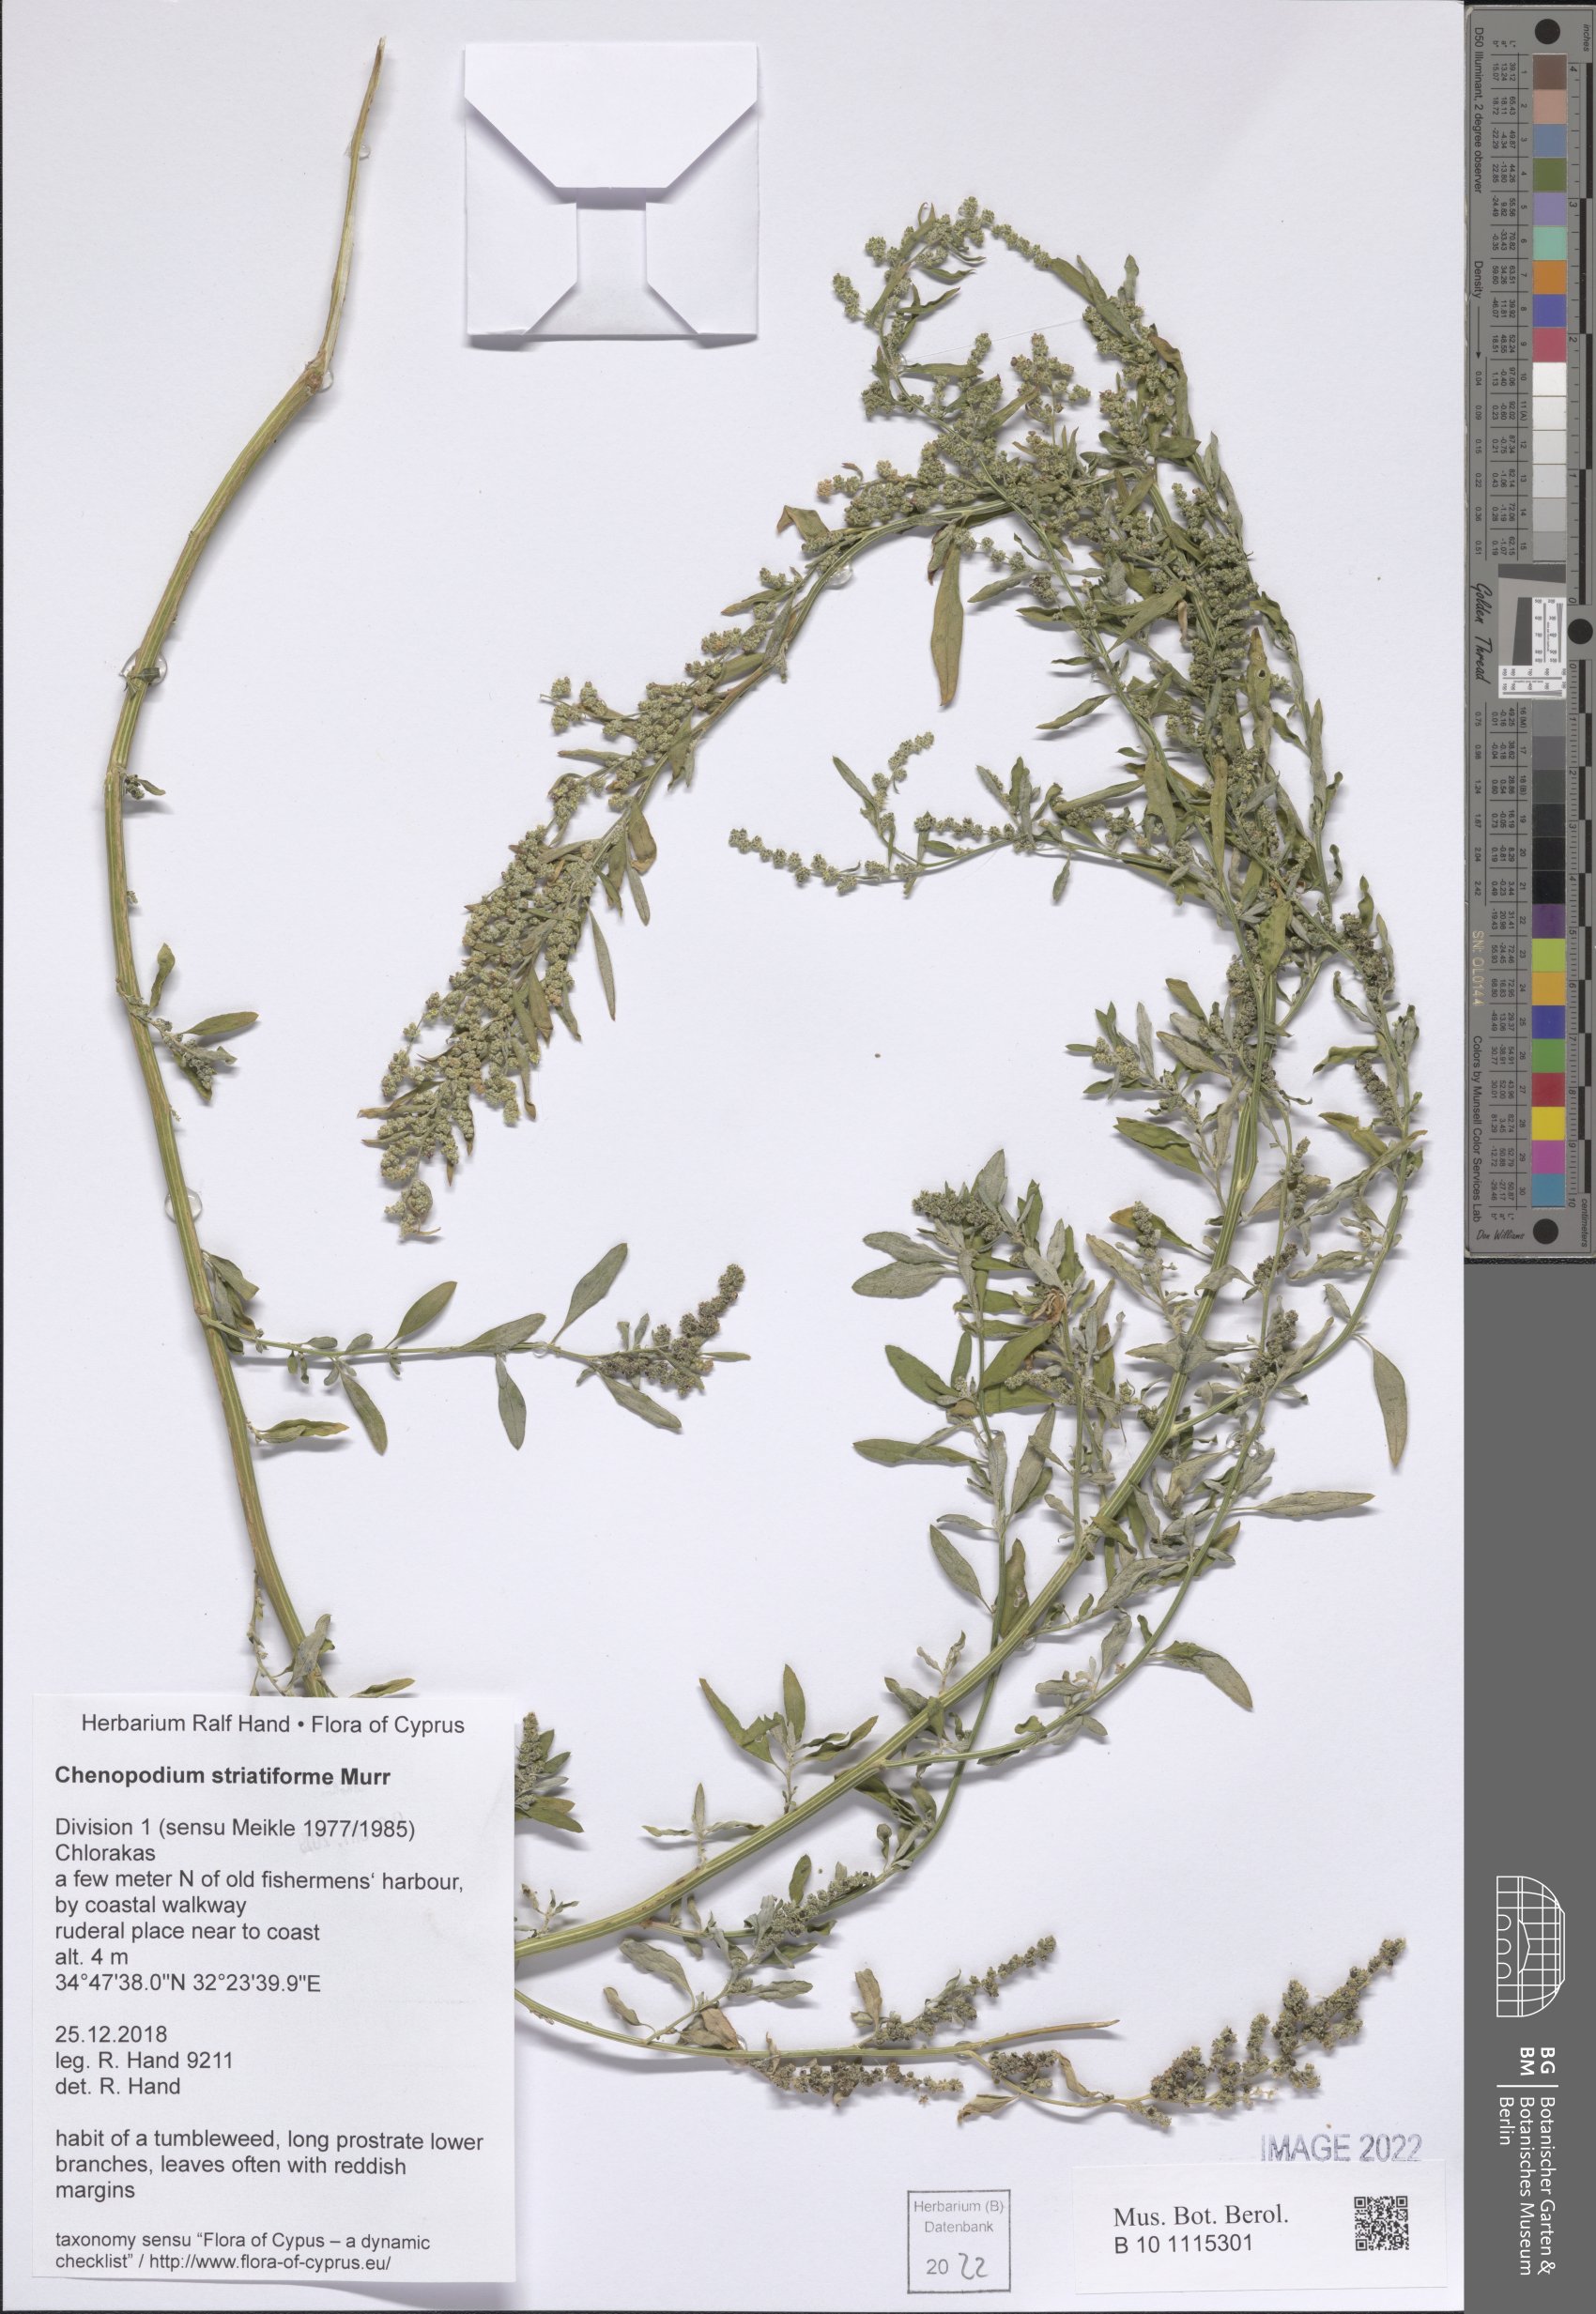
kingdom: Plantae
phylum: Tracheophyta
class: Magnoliopsida
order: Caryophyllales
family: Amaranthaceae
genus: Chenopodium
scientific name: Chenopodium striatiforme
